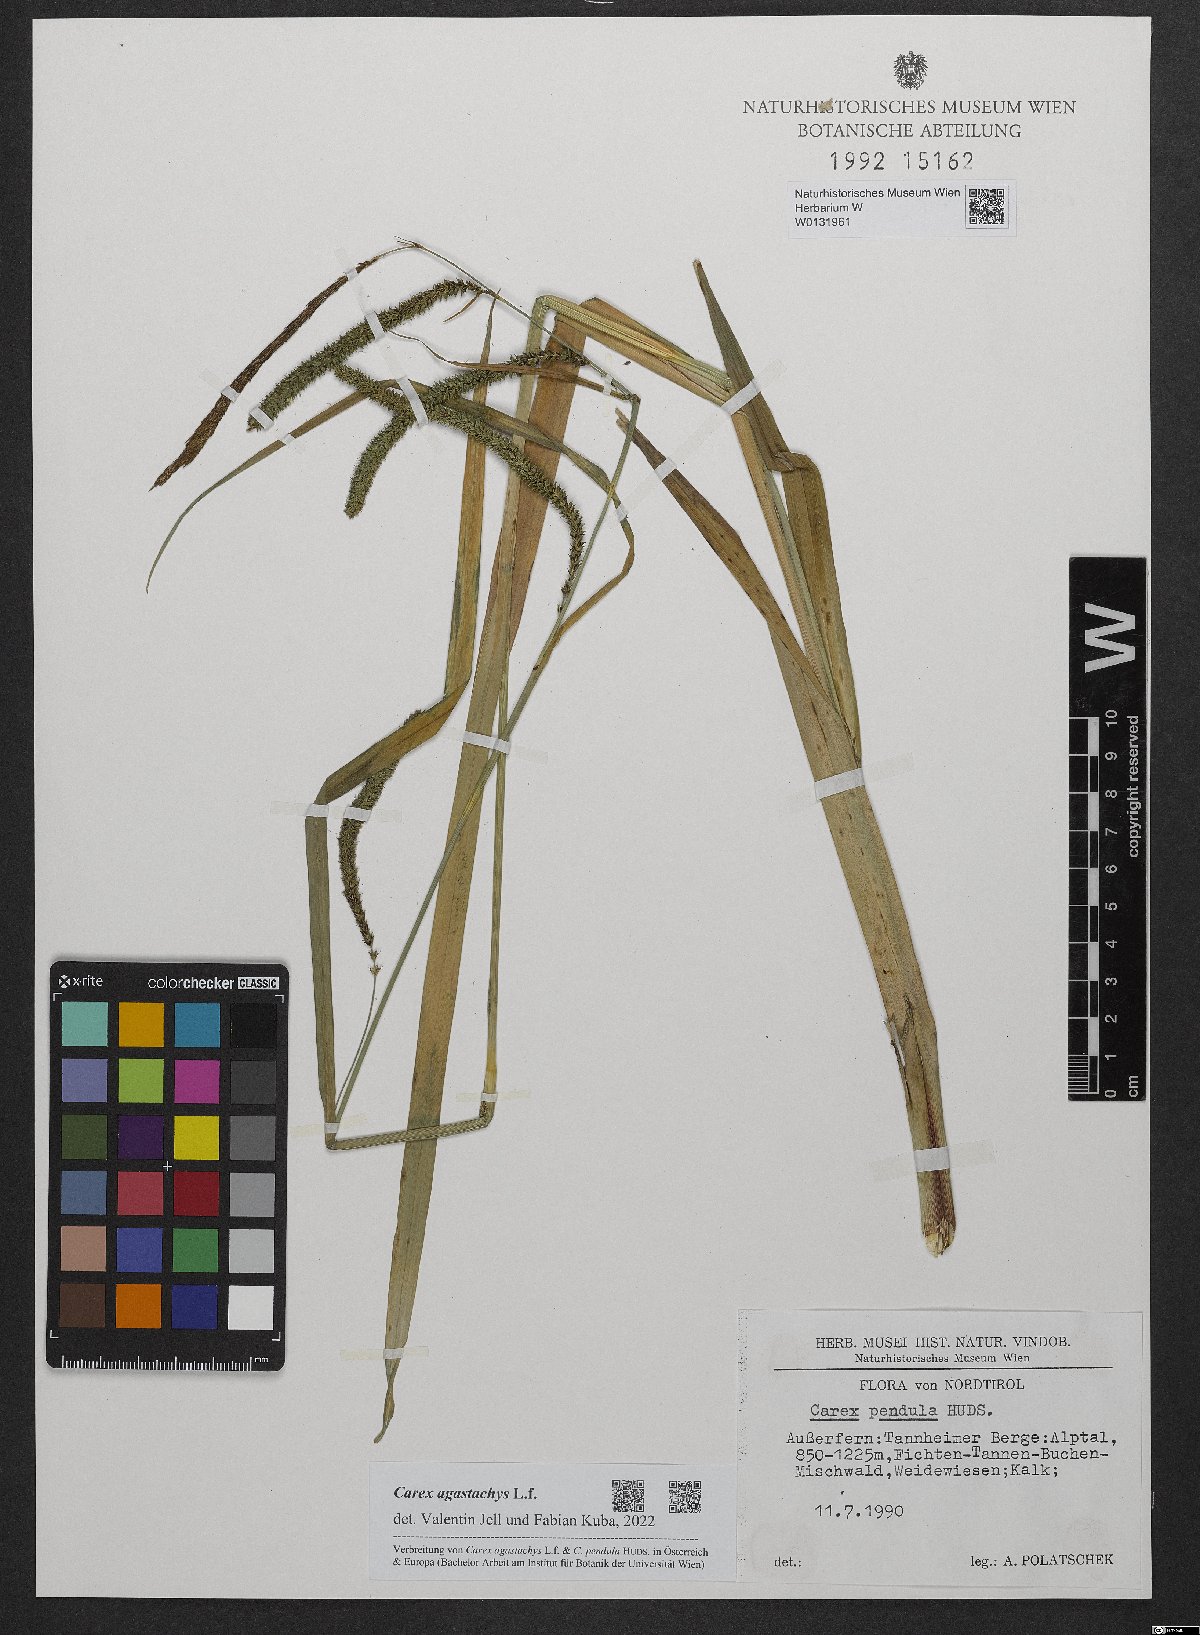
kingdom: Plantae
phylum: Tracheophyta
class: Liliopsida
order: Poales
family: Cyperaceae
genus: Carex
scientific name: Carex agastachys
